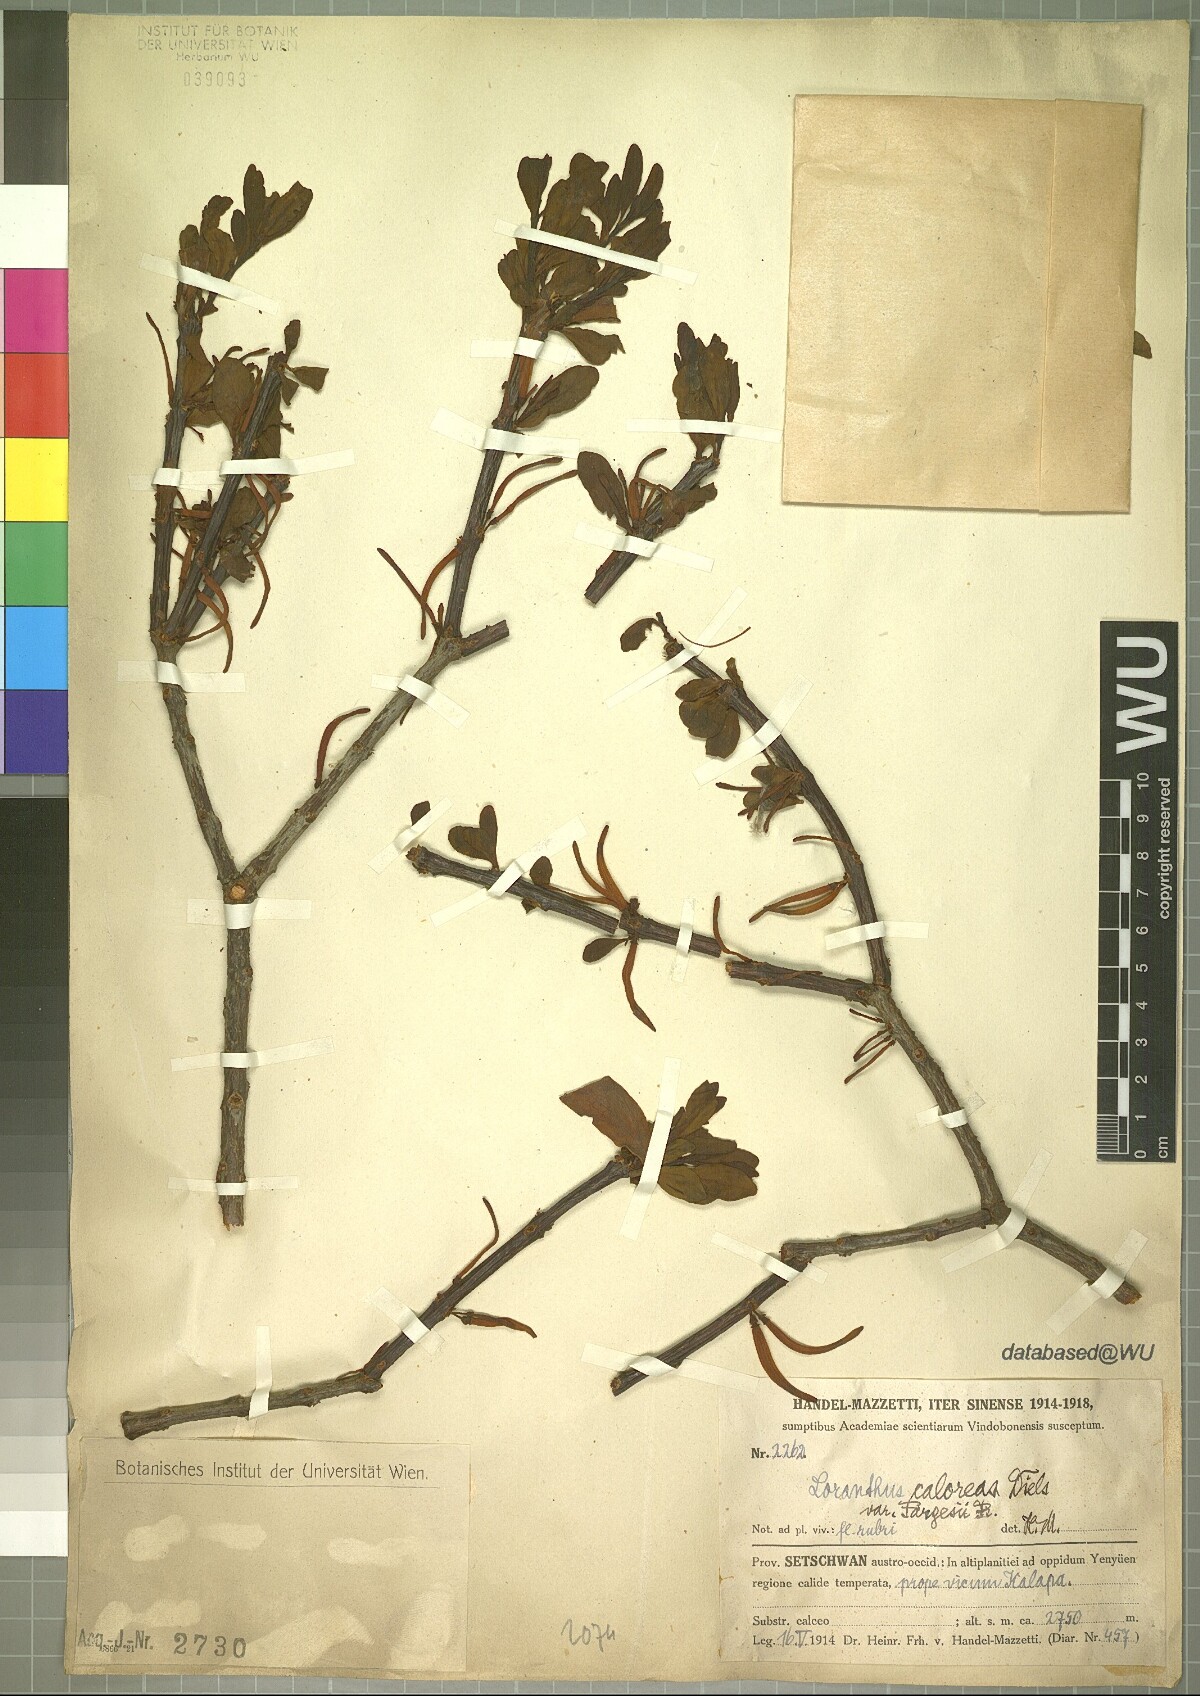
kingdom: Plantae
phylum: Tracheophyta
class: Magnoliopsida
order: Santalales
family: Loranthaceae
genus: Taxillus
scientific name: Taxillus caloreas
